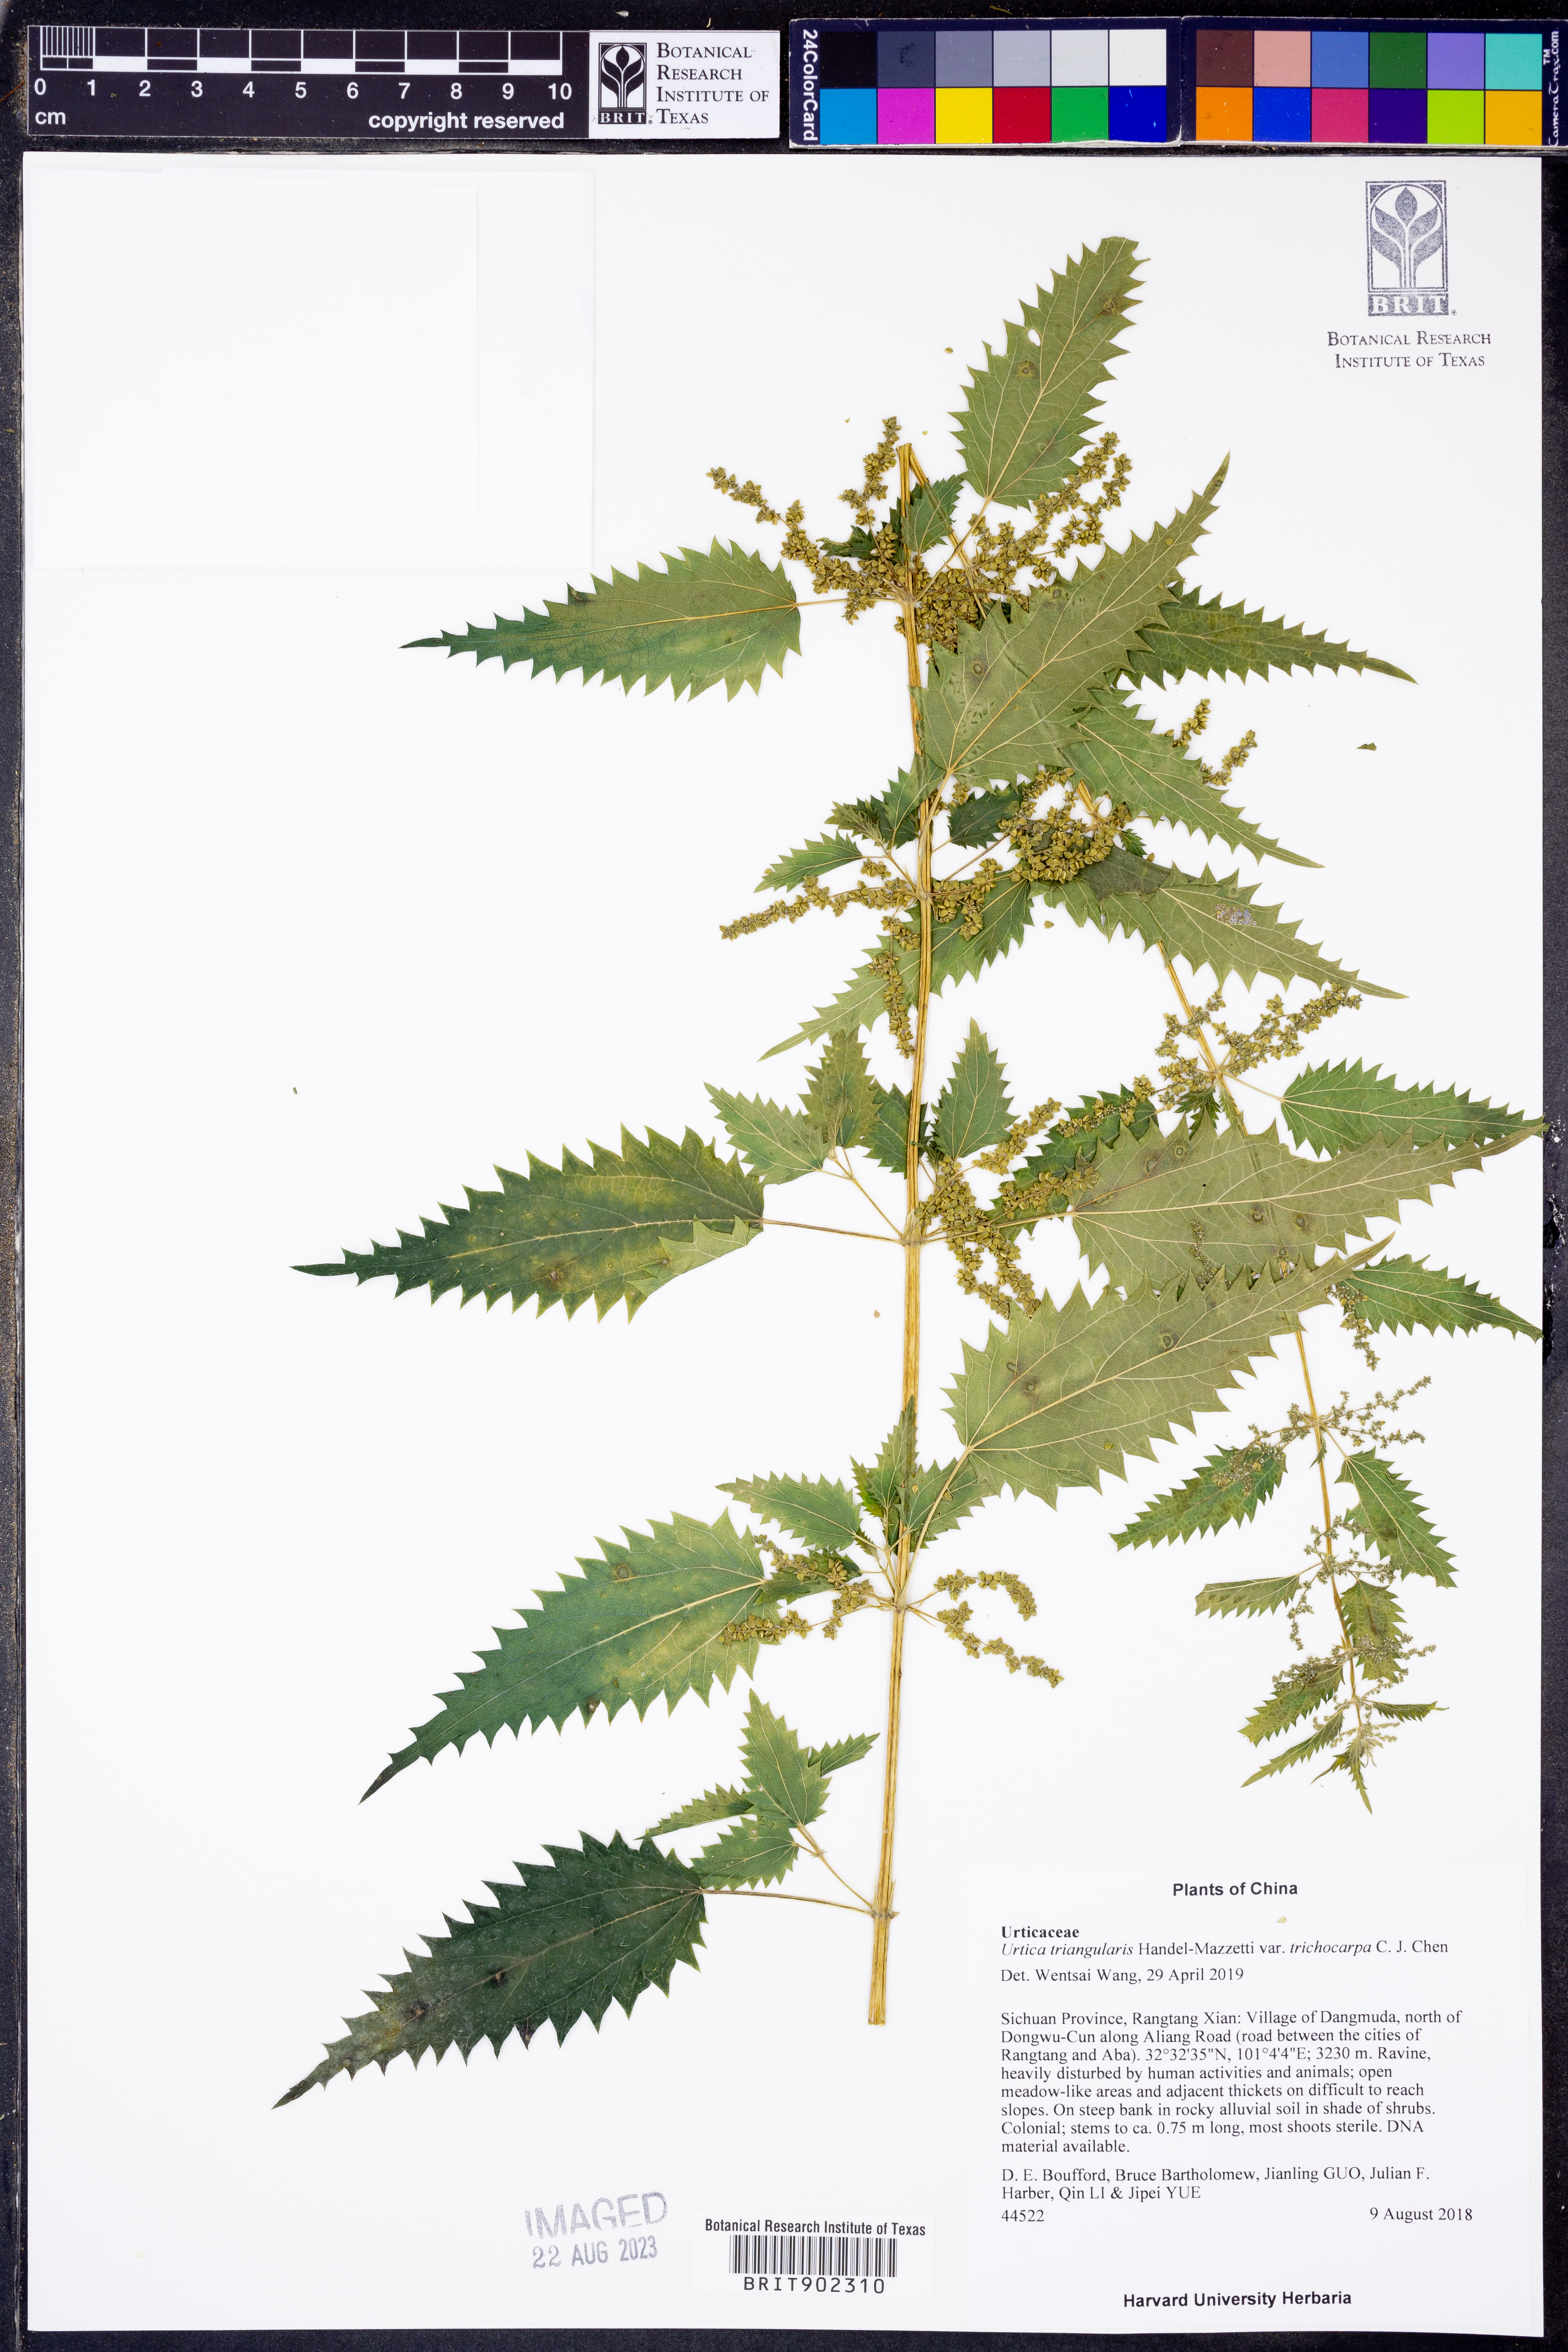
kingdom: Plantae
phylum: Tracheophyta
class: Magnoliopsida
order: Rosales
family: Urticaceae
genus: Urtica
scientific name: Urtica triangularis
